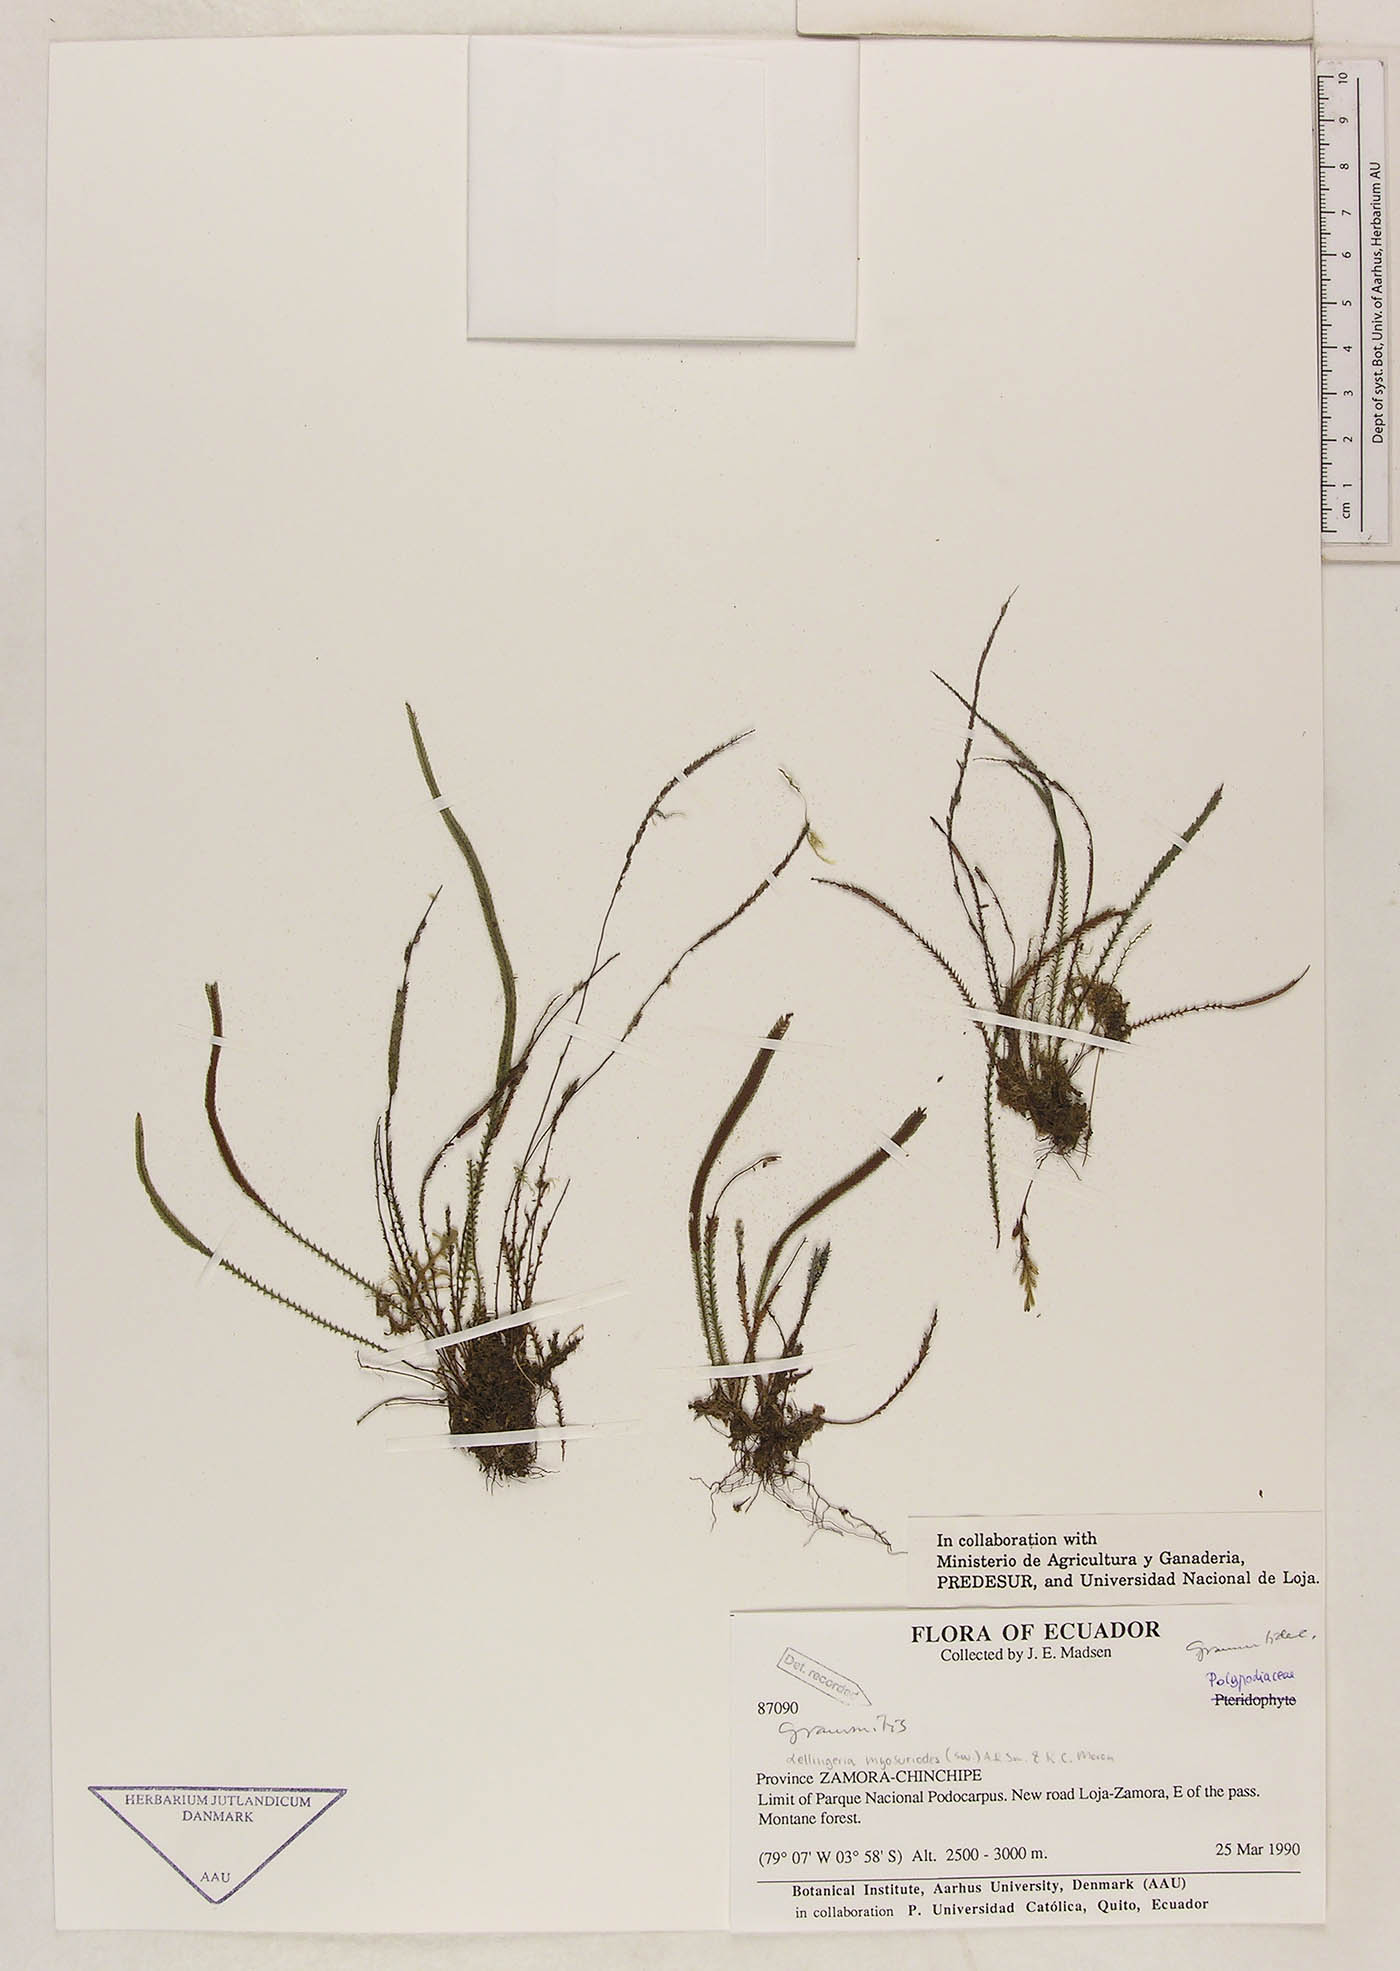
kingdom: Plantae
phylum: Tracheophyta
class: Polypodiopsida
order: Polypodiales
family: Polypodiaceae
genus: Stenogrammitis
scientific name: Stenogrammitis jamesonii
